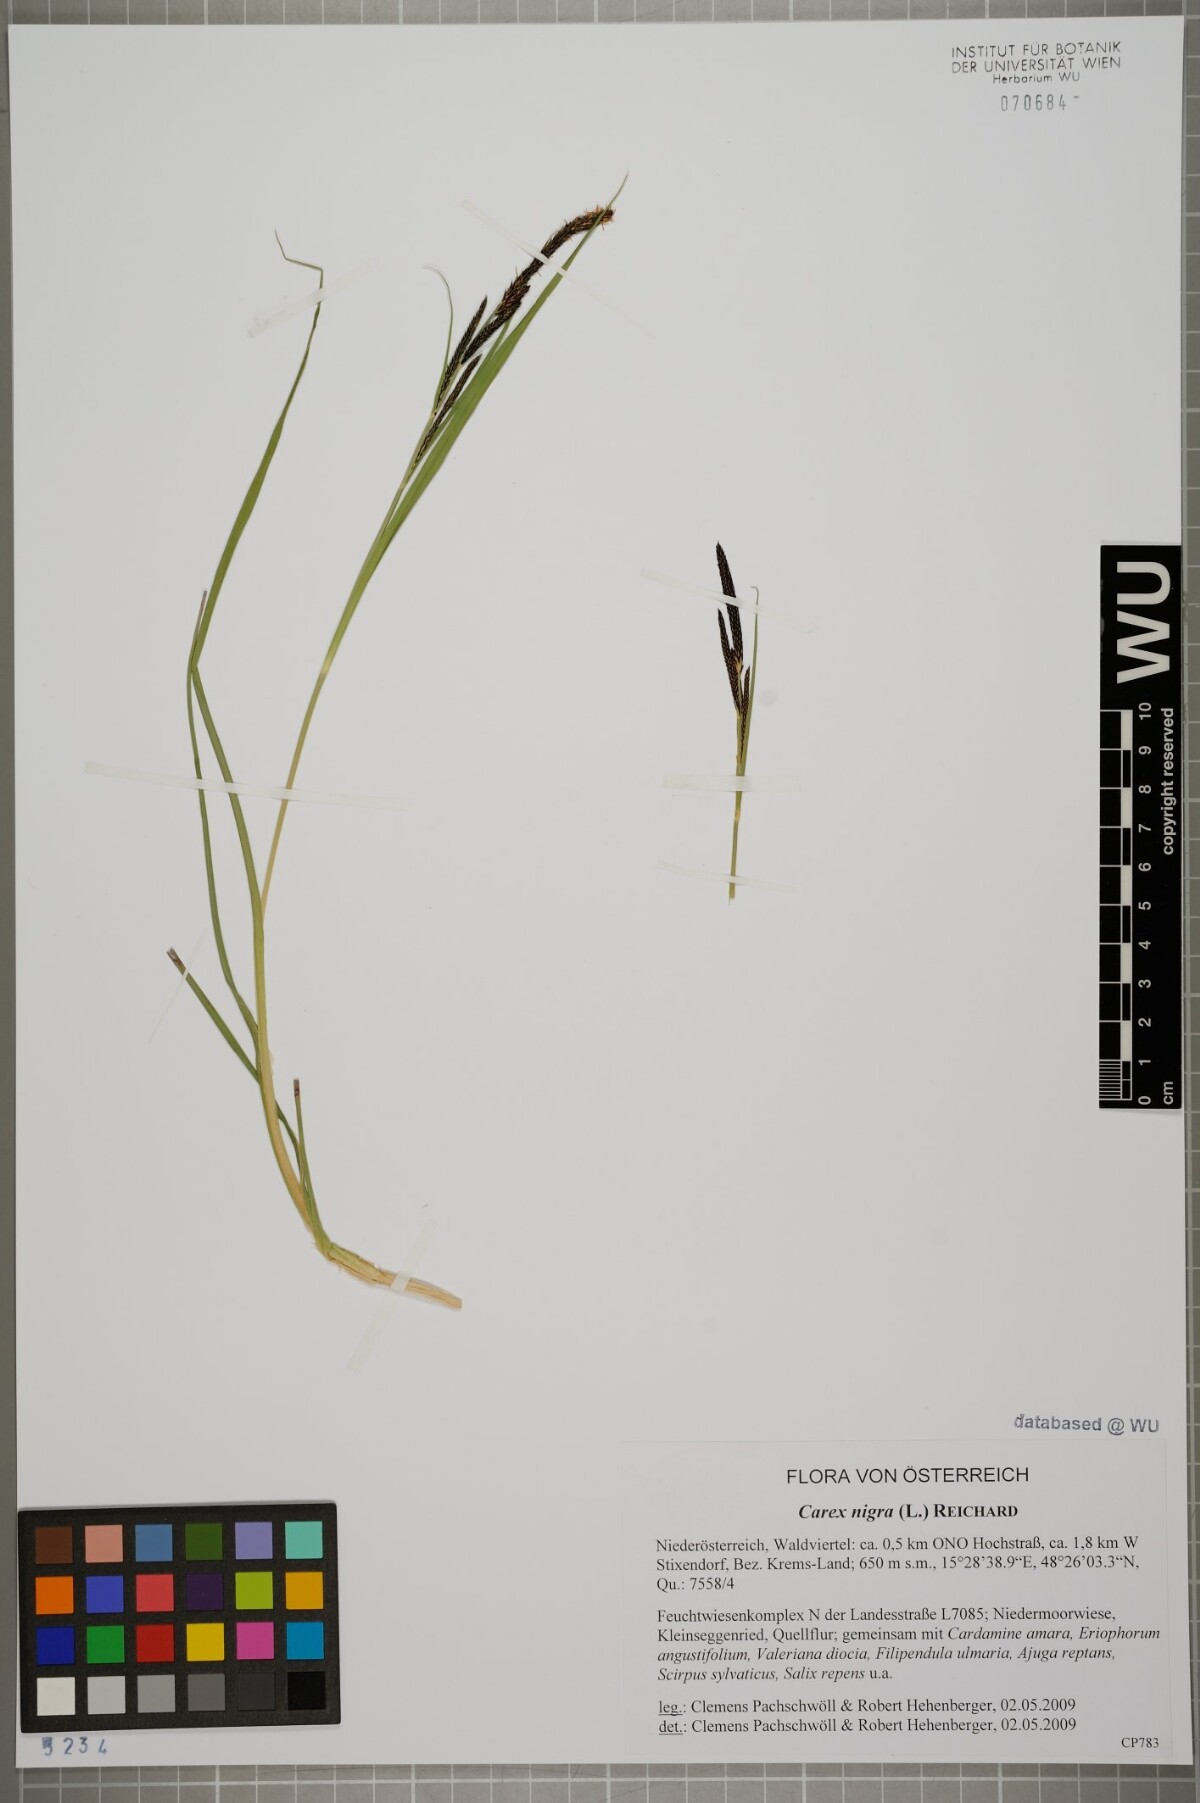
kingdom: Plantae
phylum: Tracheophyta
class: Liliopsida
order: Poales
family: Cyperaceae
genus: Carex
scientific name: Carex nigra
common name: Common sedge
